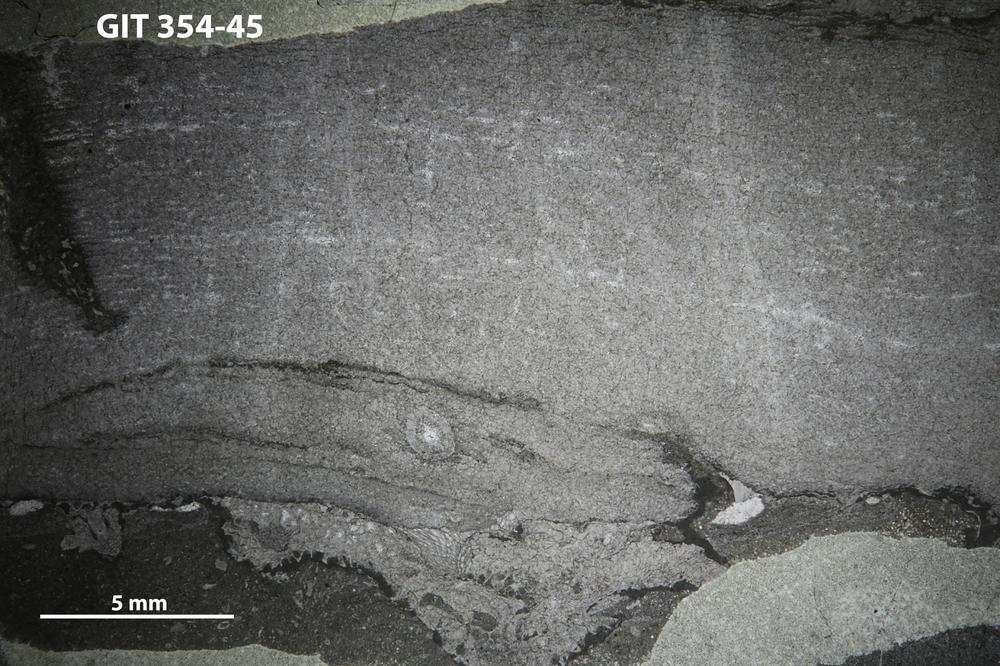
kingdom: Animalia
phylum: Porifera
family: Pseudolabechiidae
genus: Plumatalinia
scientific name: Plumatalinia ferax
